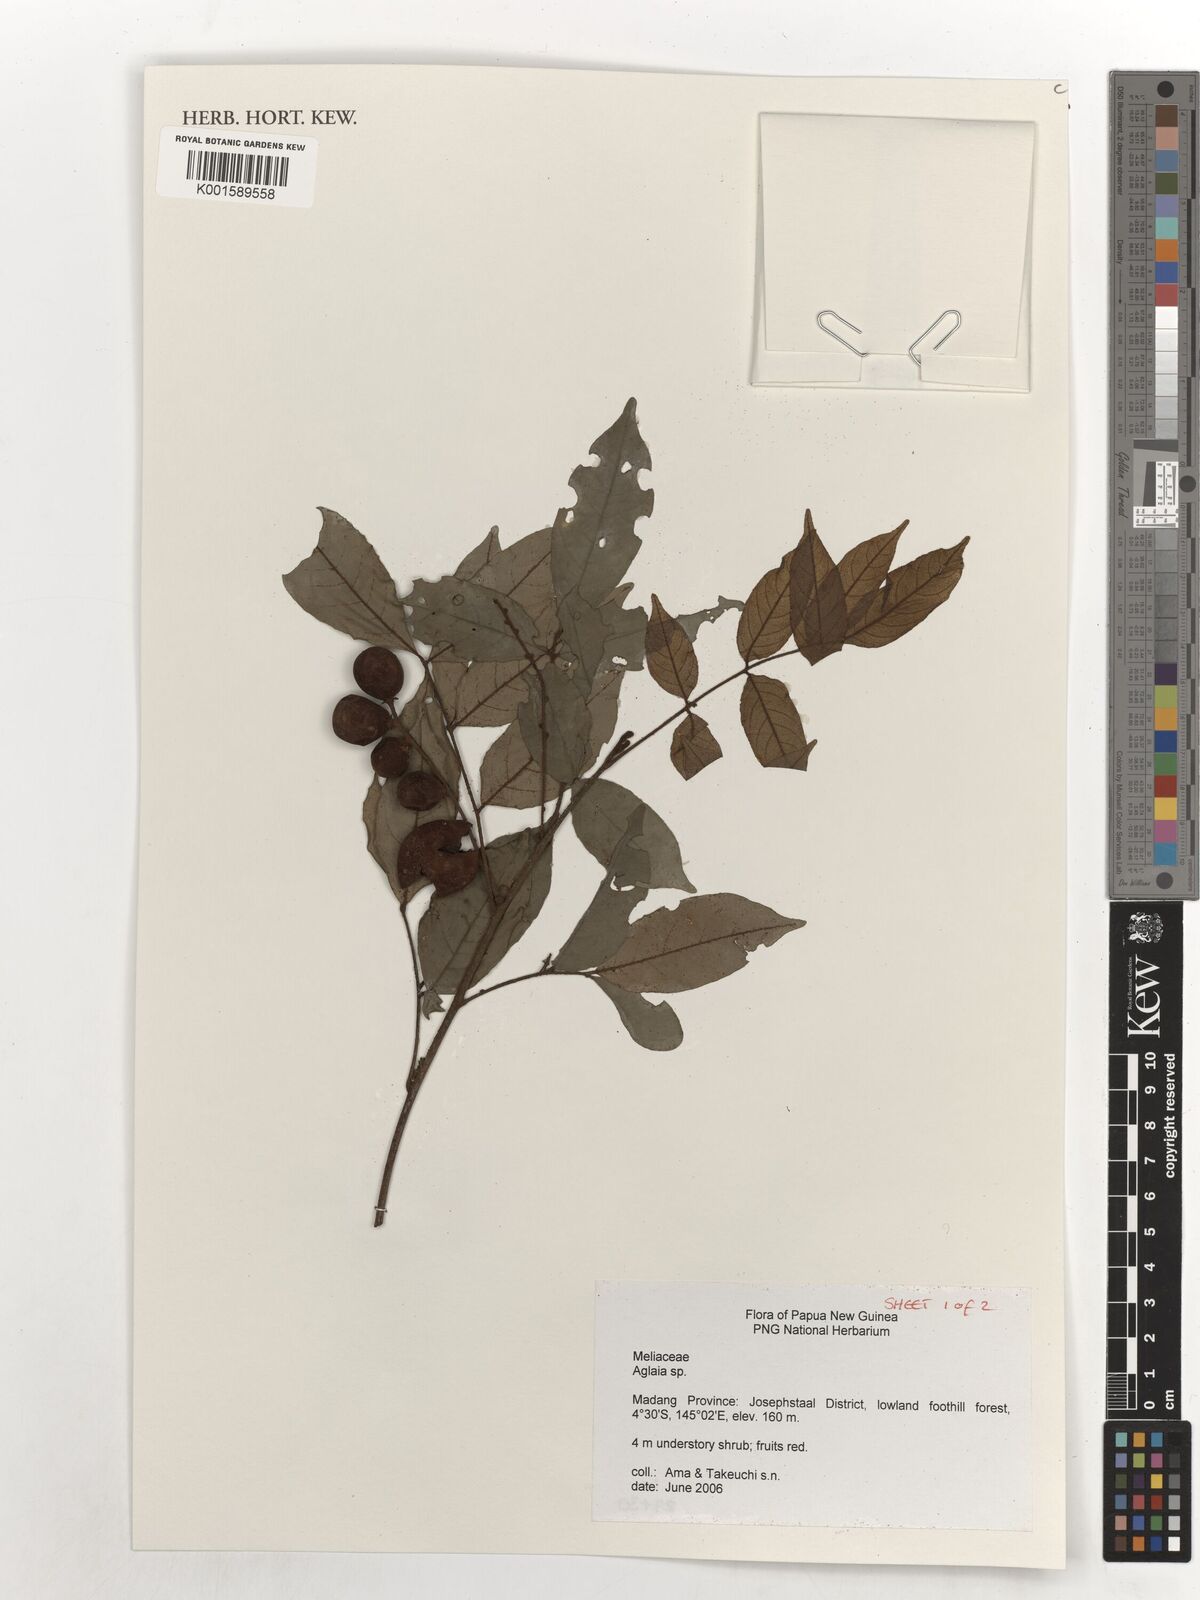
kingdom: Plantae
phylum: Tracheophyta
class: Magnoliopsida
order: Sapindales
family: Meliaceae
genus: Aglaia
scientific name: Aglaia
